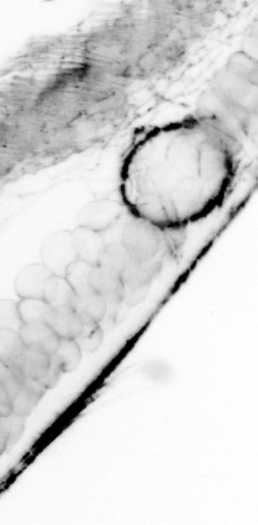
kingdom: Animalia
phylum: Chordata
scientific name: Chordata
